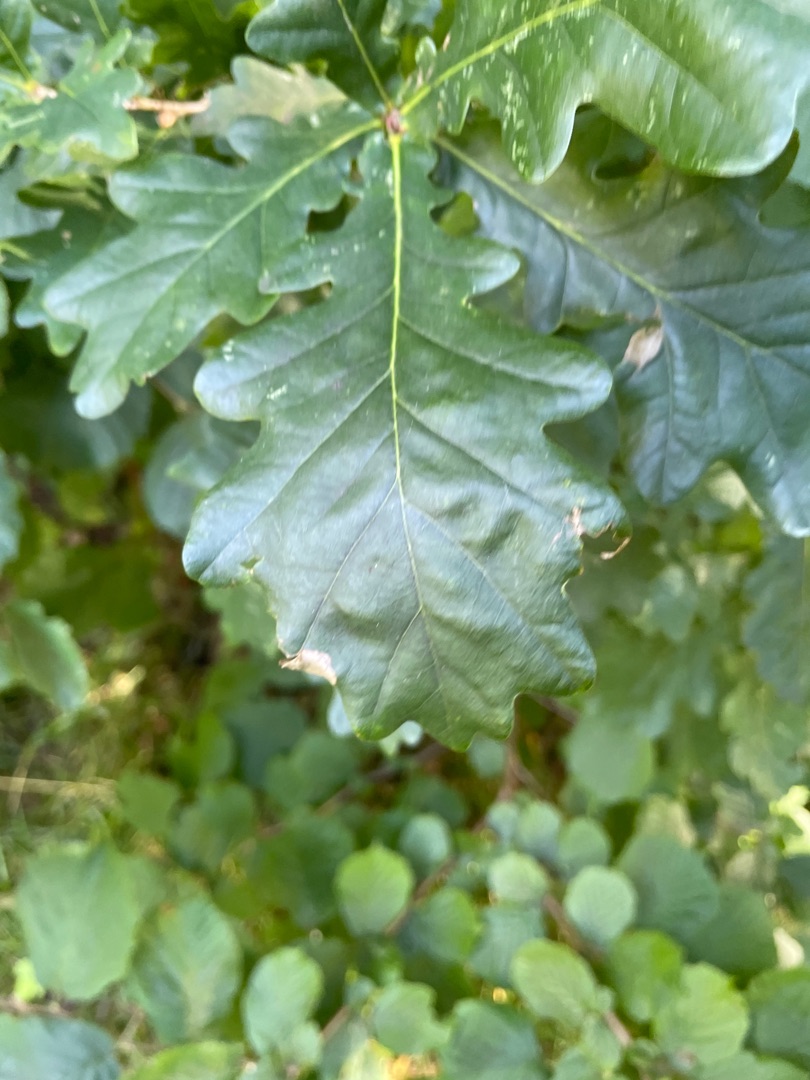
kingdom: Plantae
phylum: Tracheophyta
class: Magnoliopsida
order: Fagales
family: Fagaceae
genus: Quercus
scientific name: Quercus robur
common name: Stilk-eg/almindelig eg
